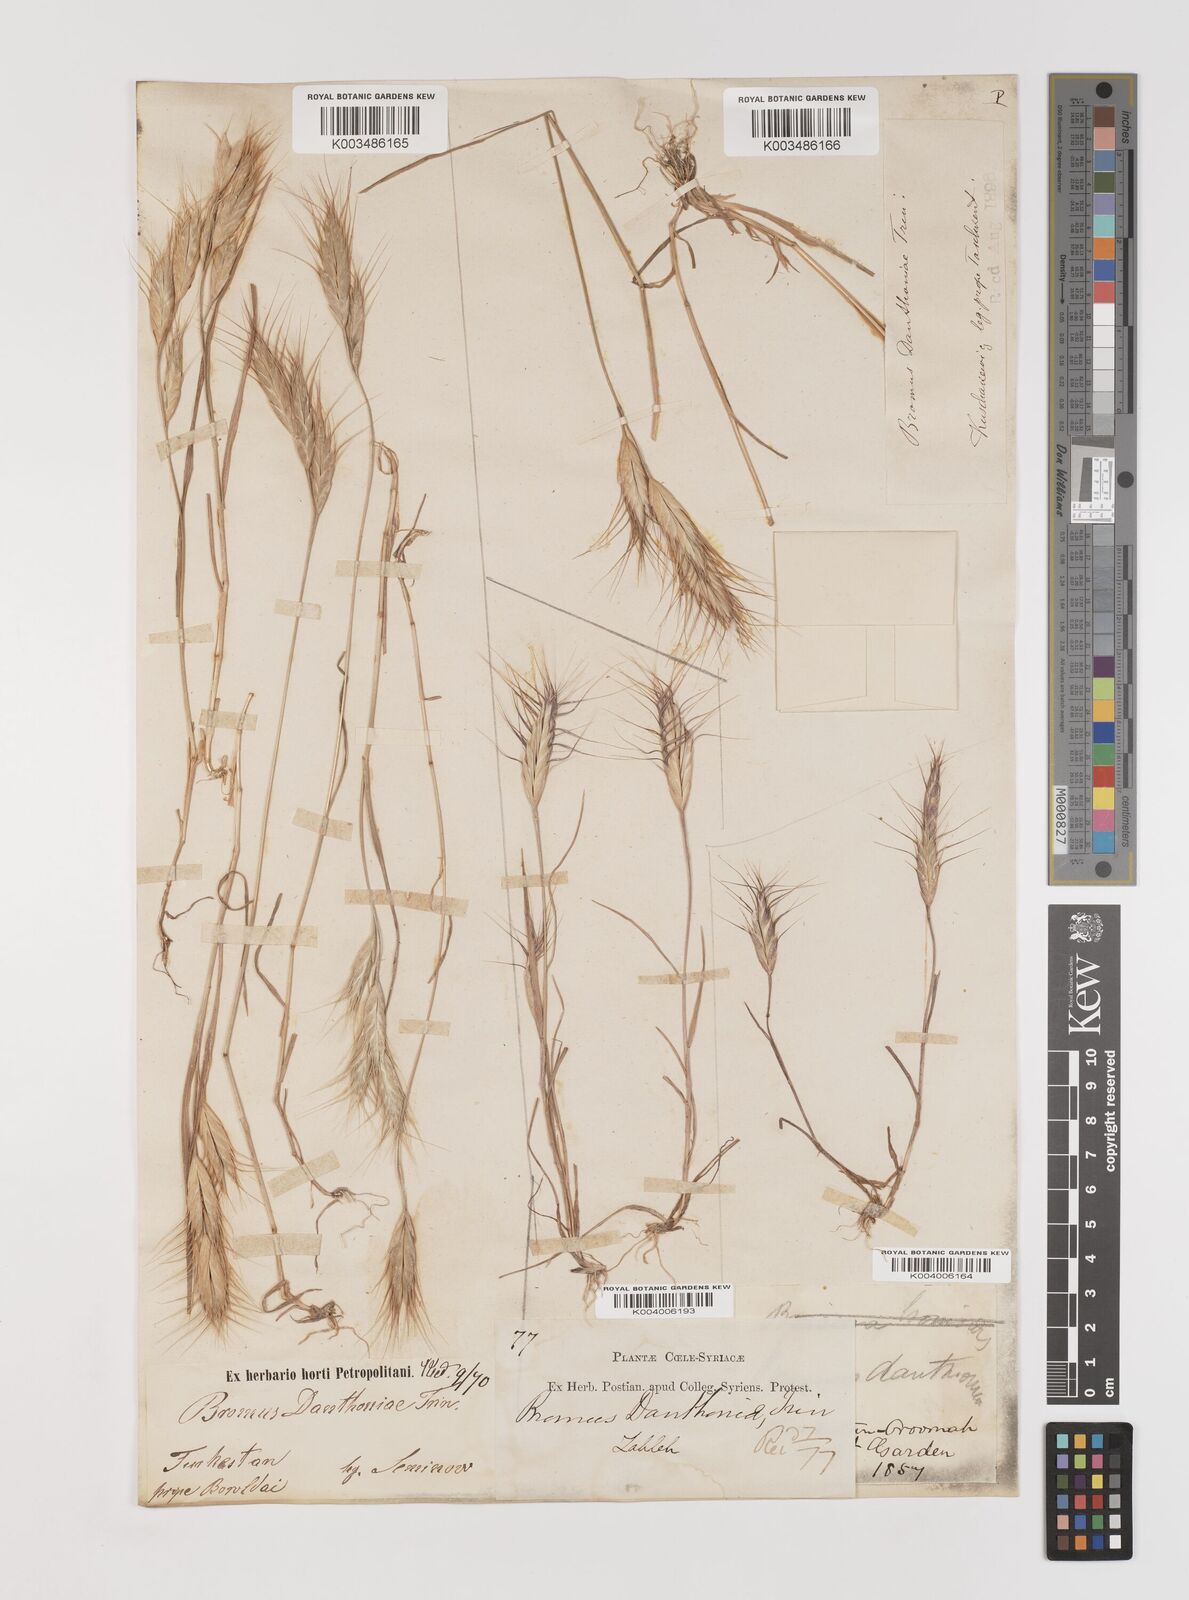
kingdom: Plantae
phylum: Tracheophyta
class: Liliopsida
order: Poales
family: Poaceae
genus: Bromus
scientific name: Bromus danthoniae
